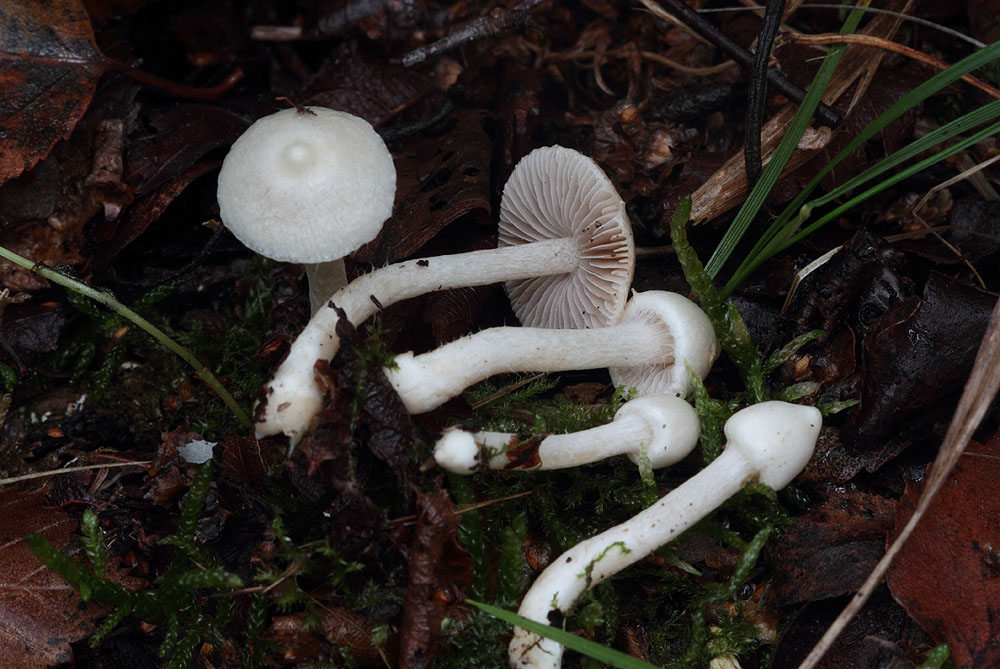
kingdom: Fungi
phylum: Basidiomycota
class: Agaricomycetes
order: Agaricales
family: Inocybaceae
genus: Inocybe
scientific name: Inocybe paludinella
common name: mose-trævlhat
